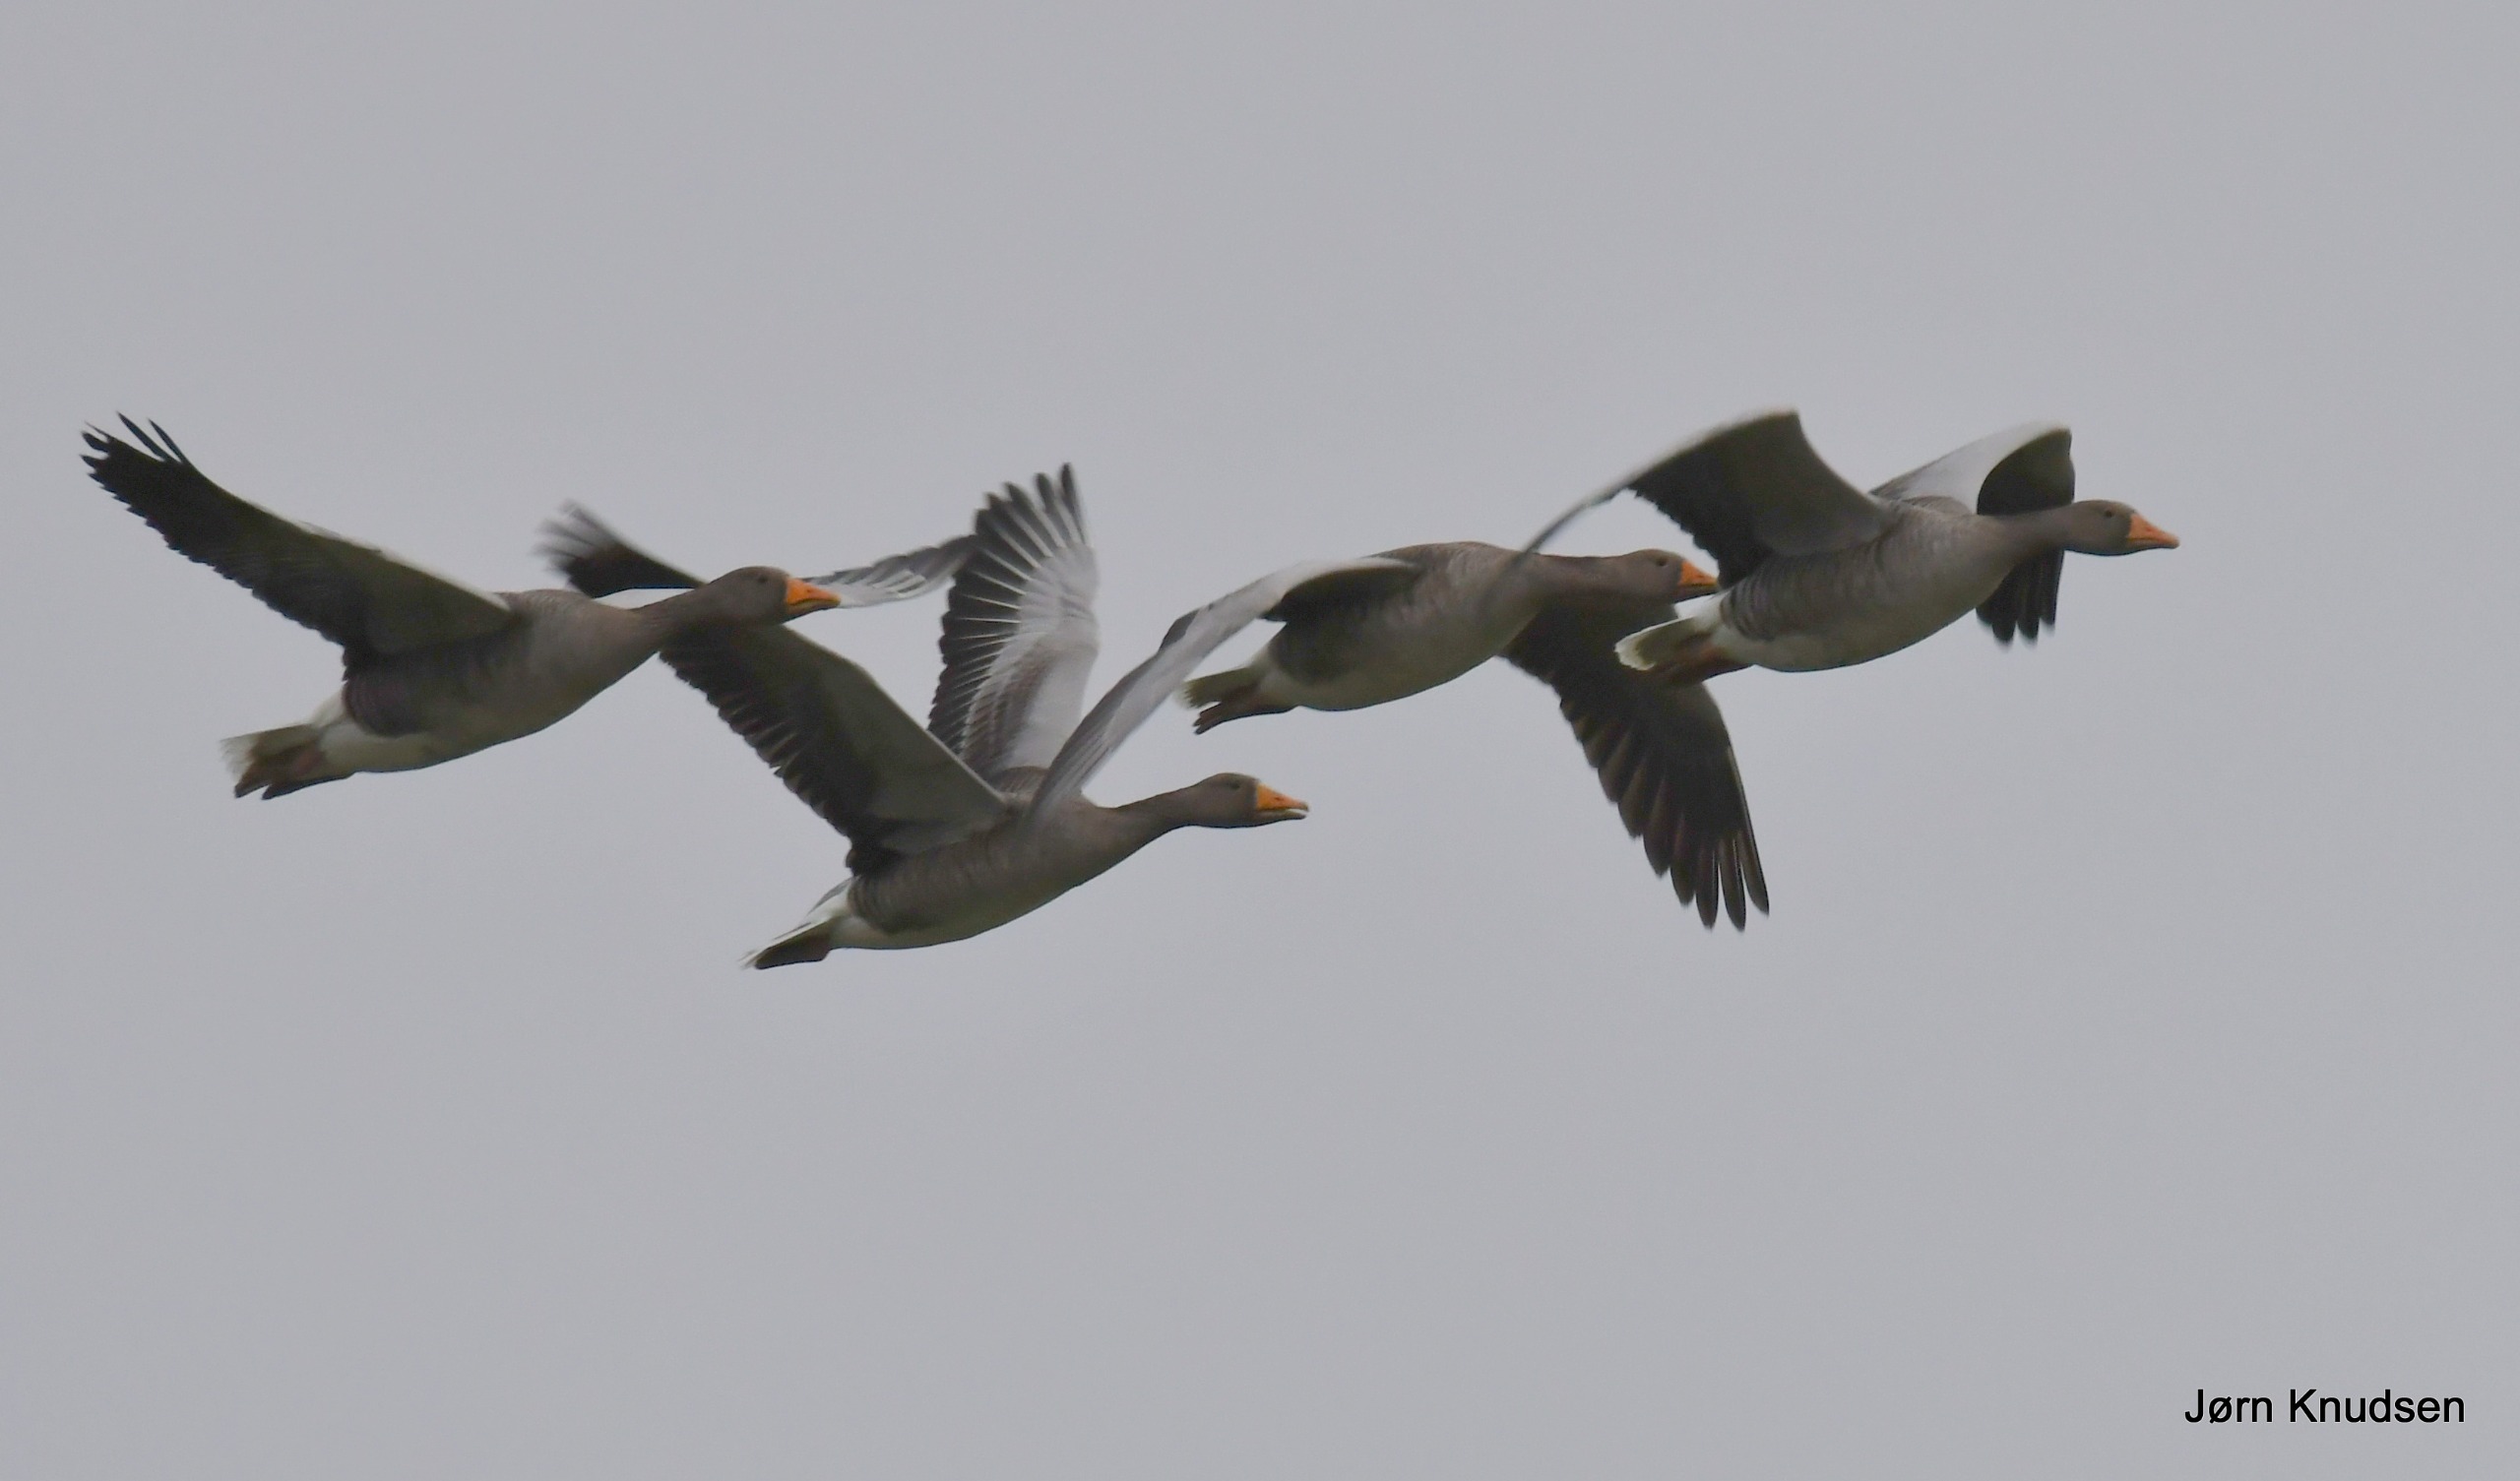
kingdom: Animalia
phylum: Chordata
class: Aves
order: Anseriformes
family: Anatidae
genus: Anser
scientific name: Anser anser
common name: Grågås
